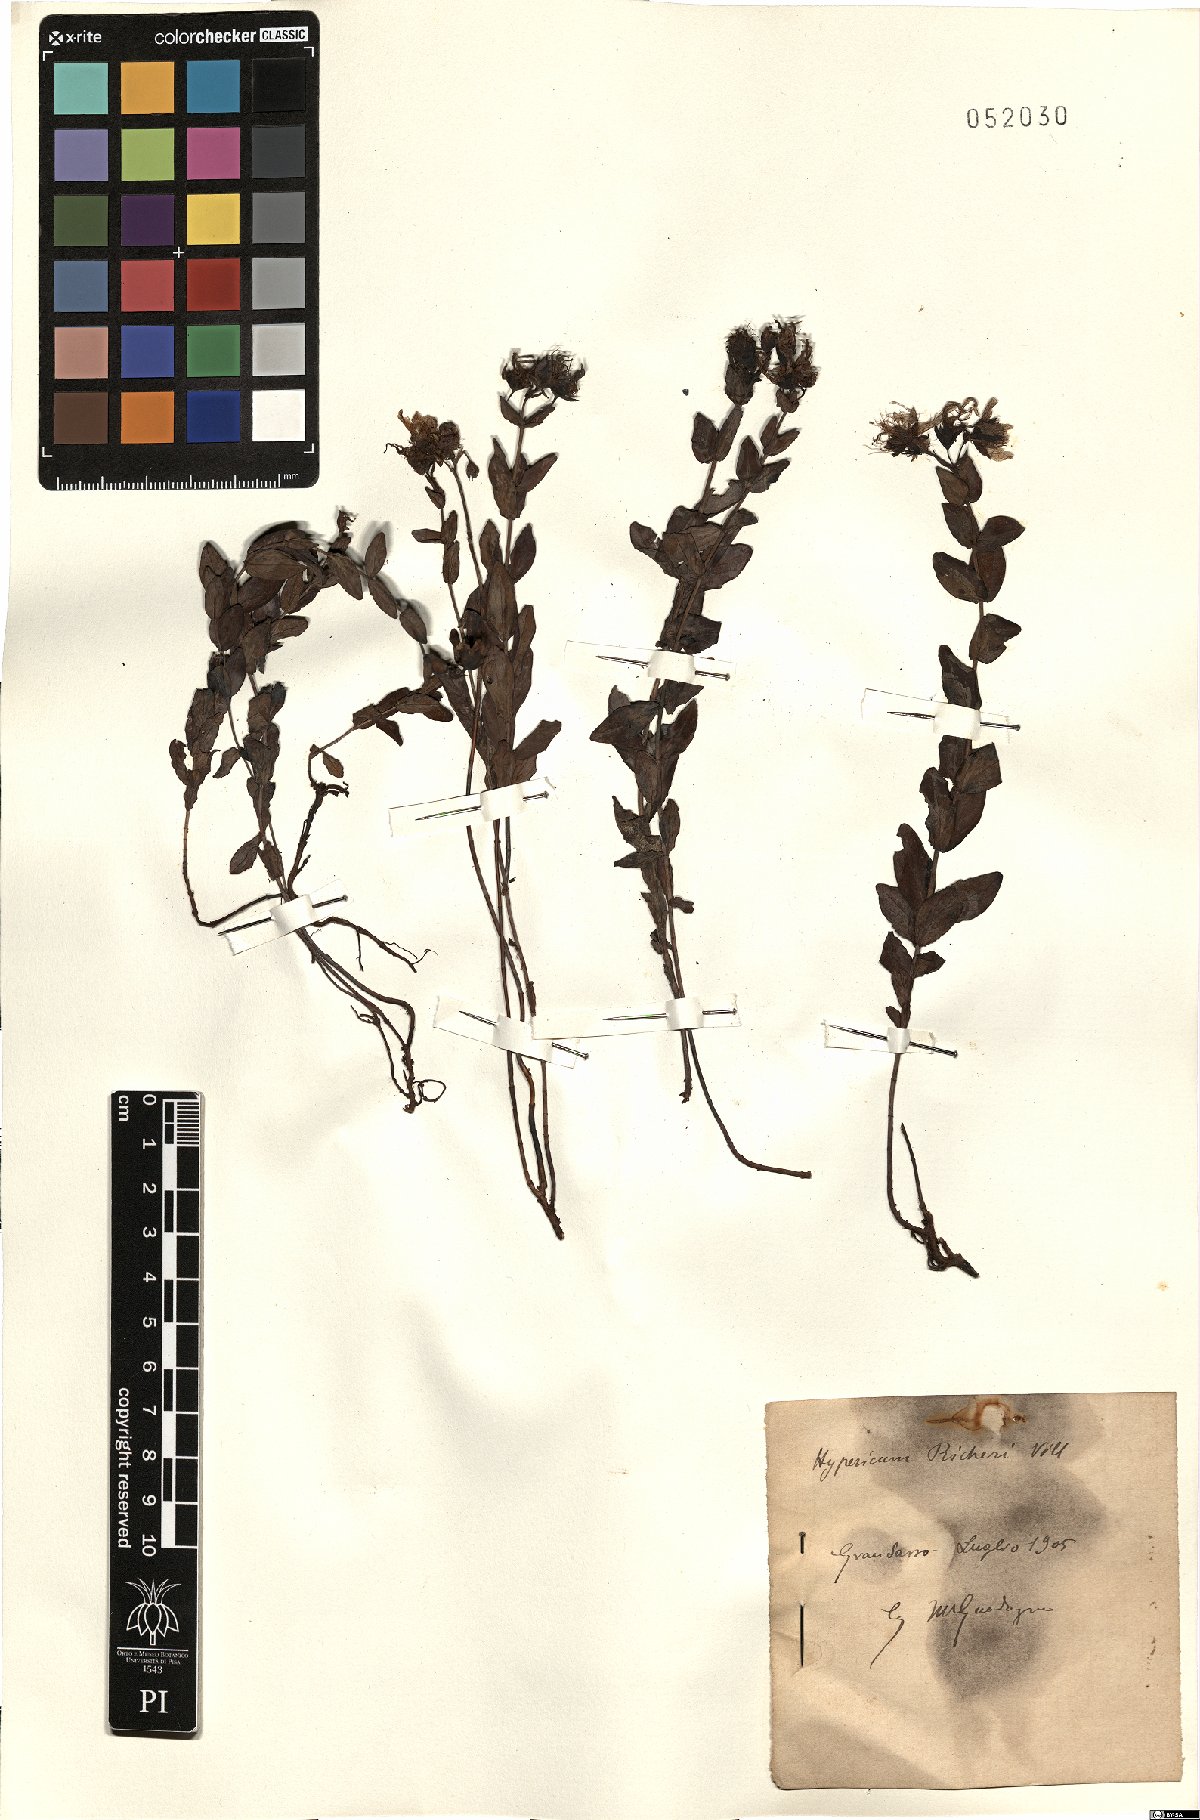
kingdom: Plantae
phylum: Tracheophyta
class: Magnoliopsida
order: Malpighiales
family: Hypericaceae
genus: Hypericum
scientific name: Hypericum richeri
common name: Alpine st john's-wort
